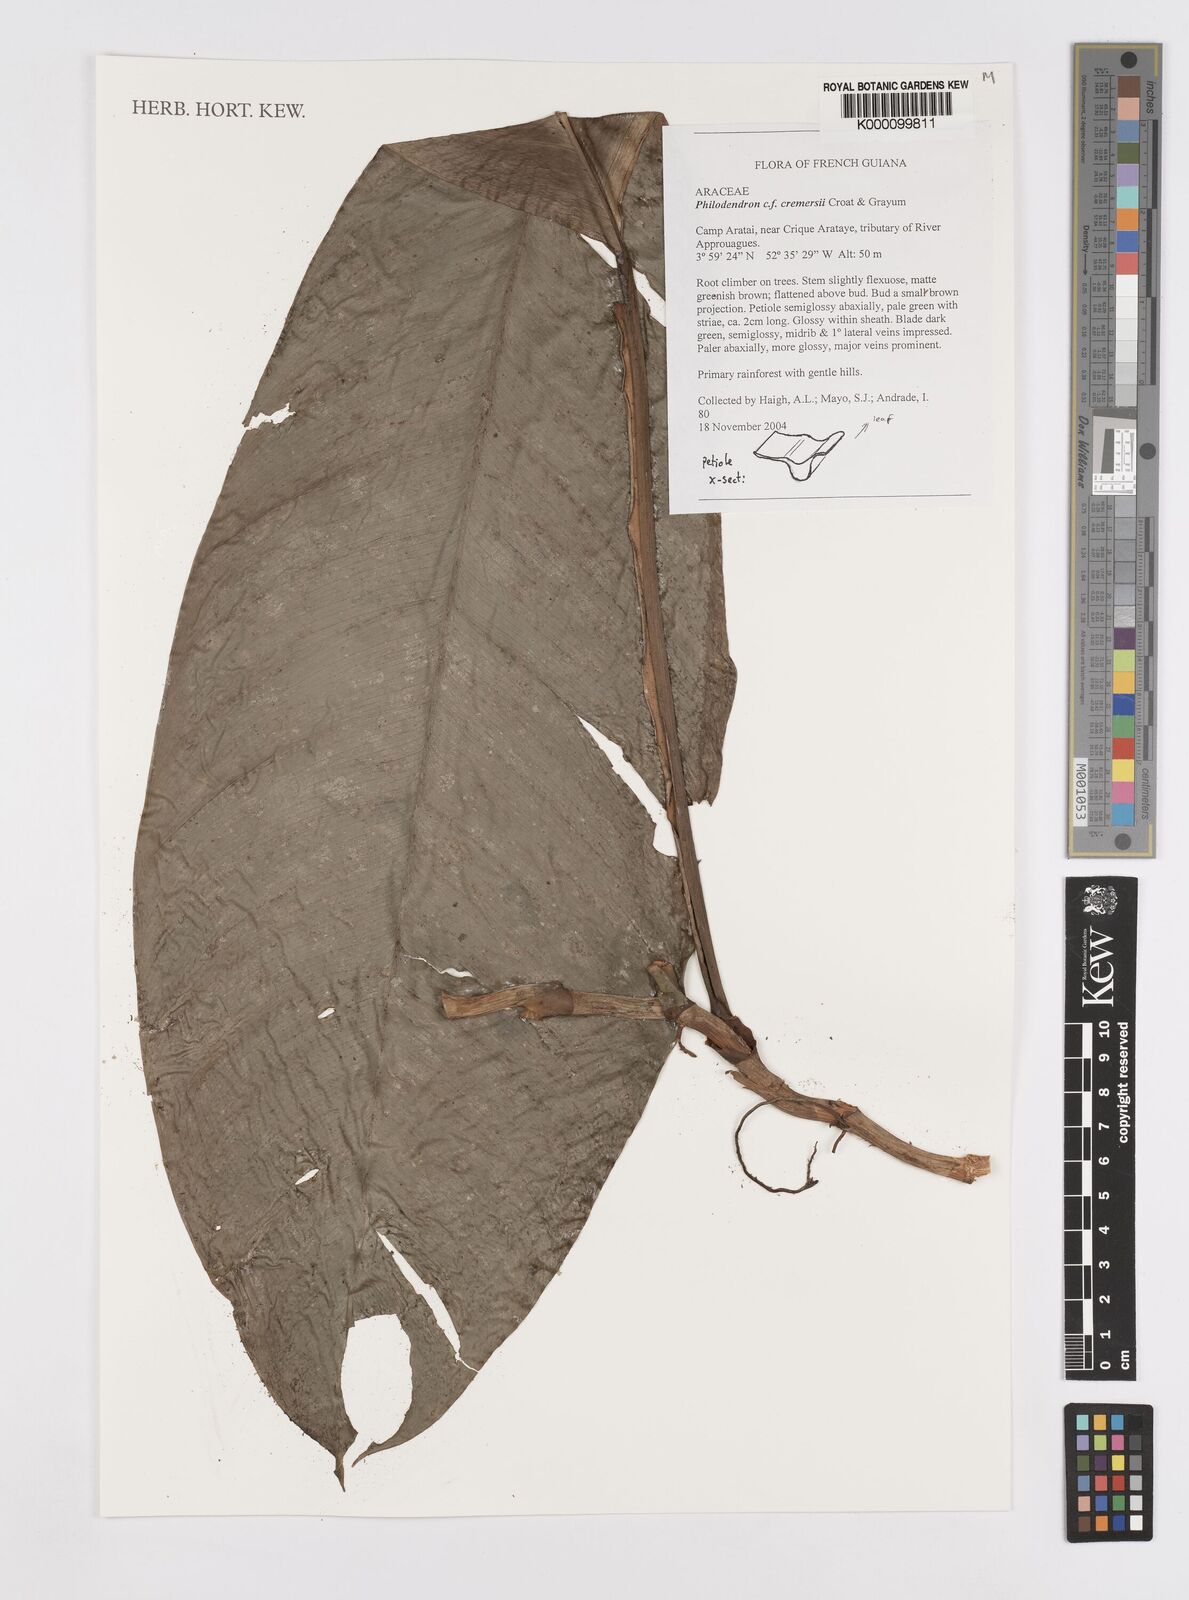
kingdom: Plantae
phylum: Tracheophyta
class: Liliopsida
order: Alismatales
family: Araceae
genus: Philodendron
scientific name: Philodendron cremersii
